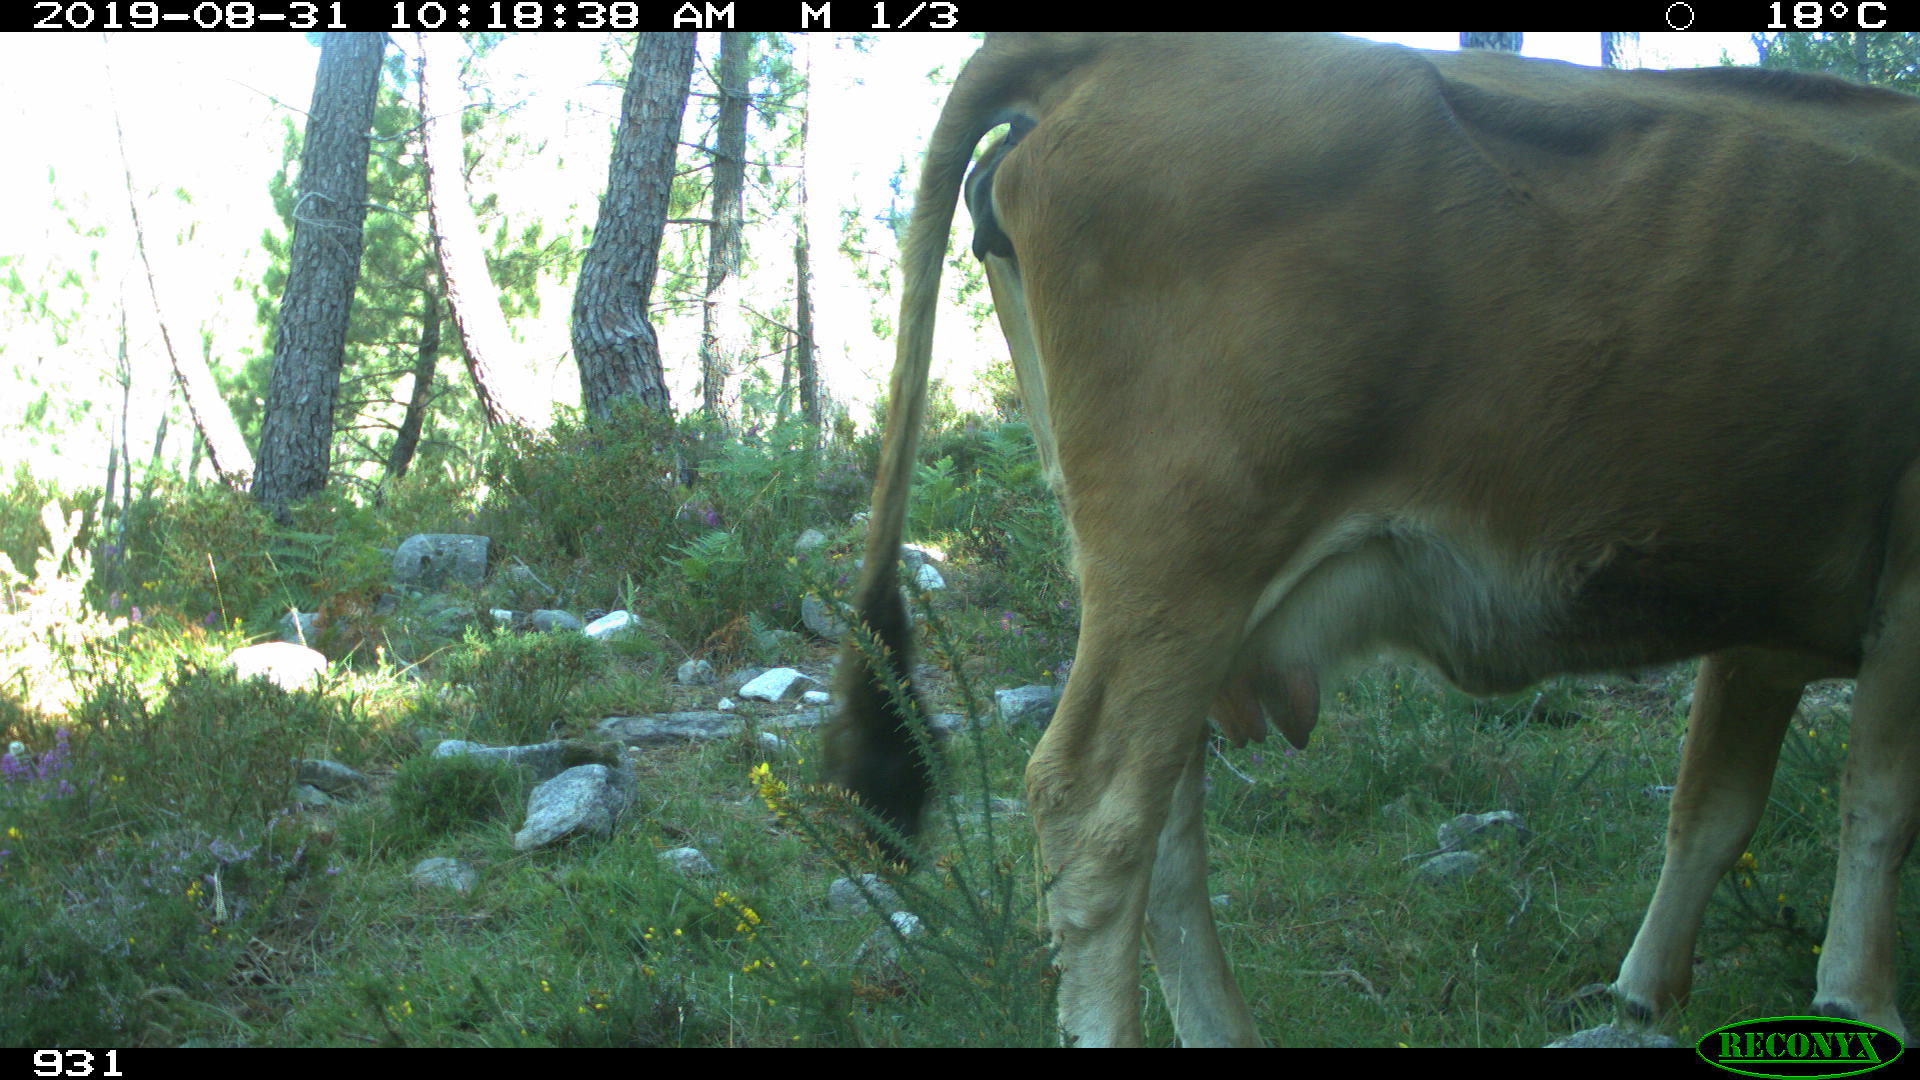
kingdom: Animalia
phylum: Chordata
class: Mammalia
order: Artiodactyla
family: Bovidae
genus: Bos
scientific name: Bos taurus
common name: Domesticated cattle
